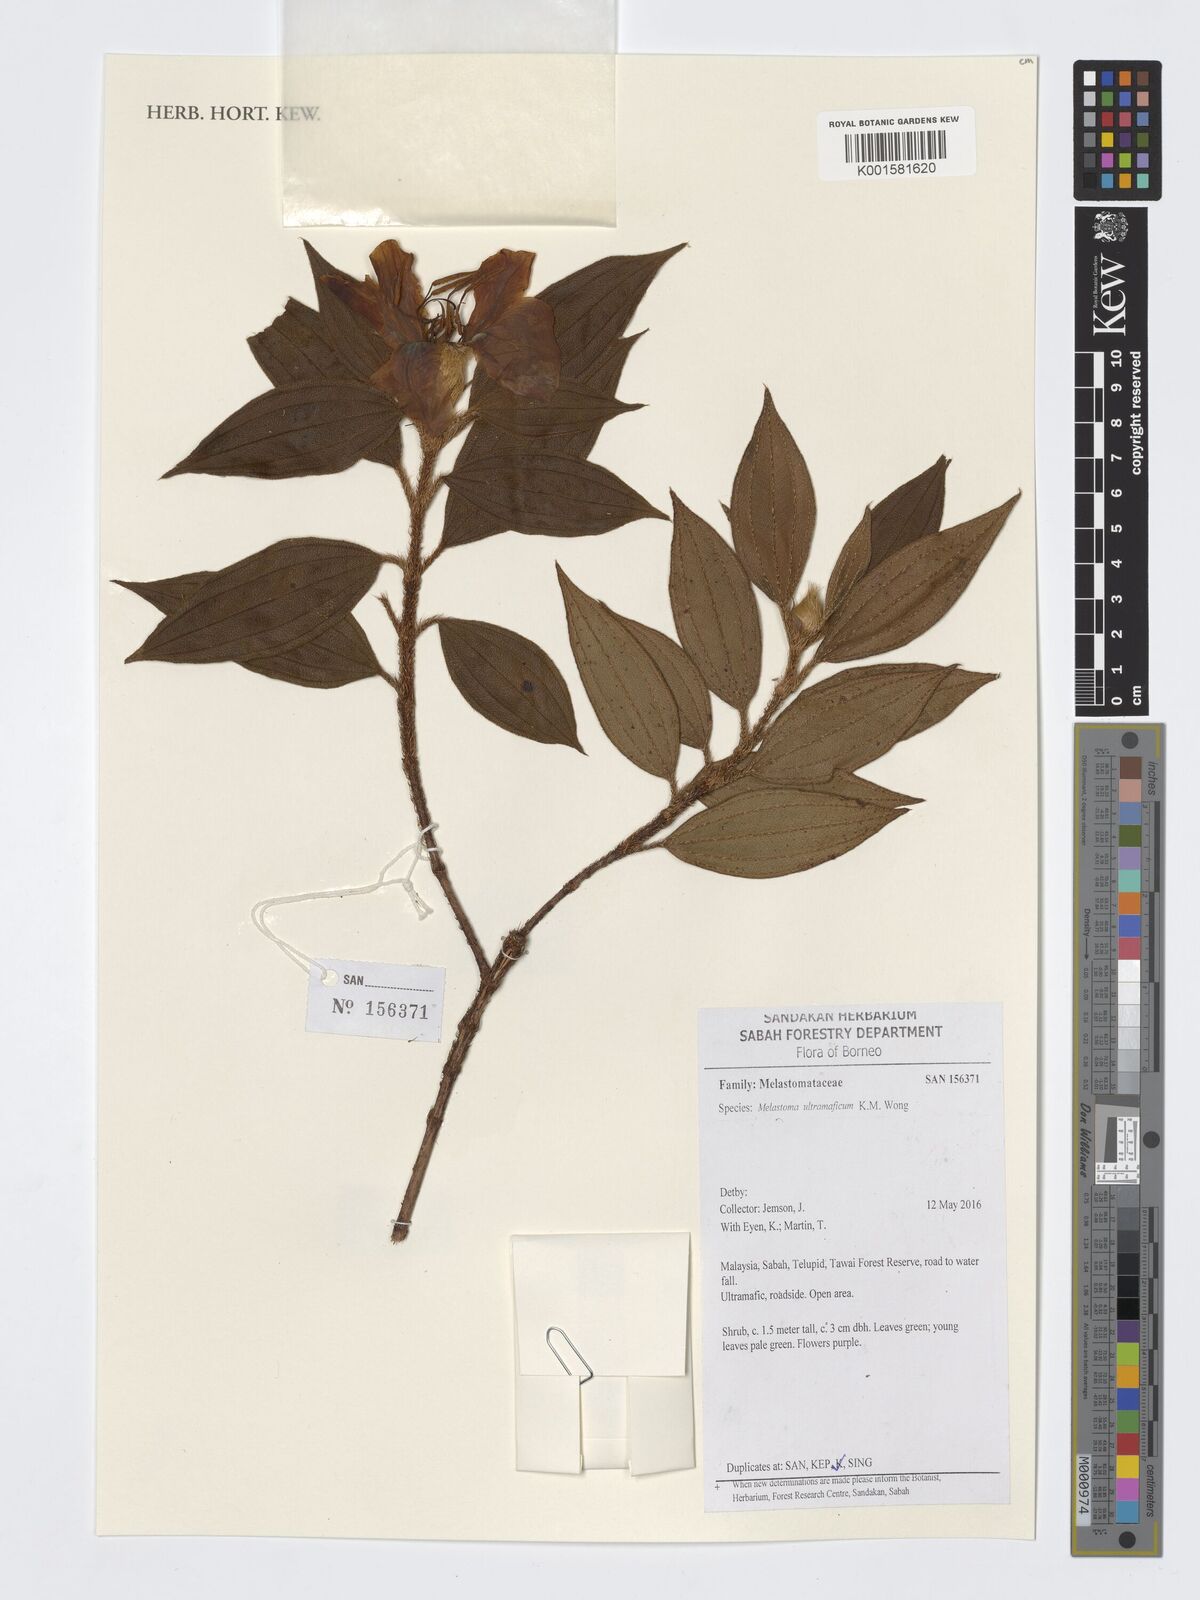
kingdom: Plantae
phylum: Tracheophyta
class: Magnoliopsida
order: Myrtales
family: Melastomataceae
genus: Melastoma
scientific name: Melastoma ultramaficum
